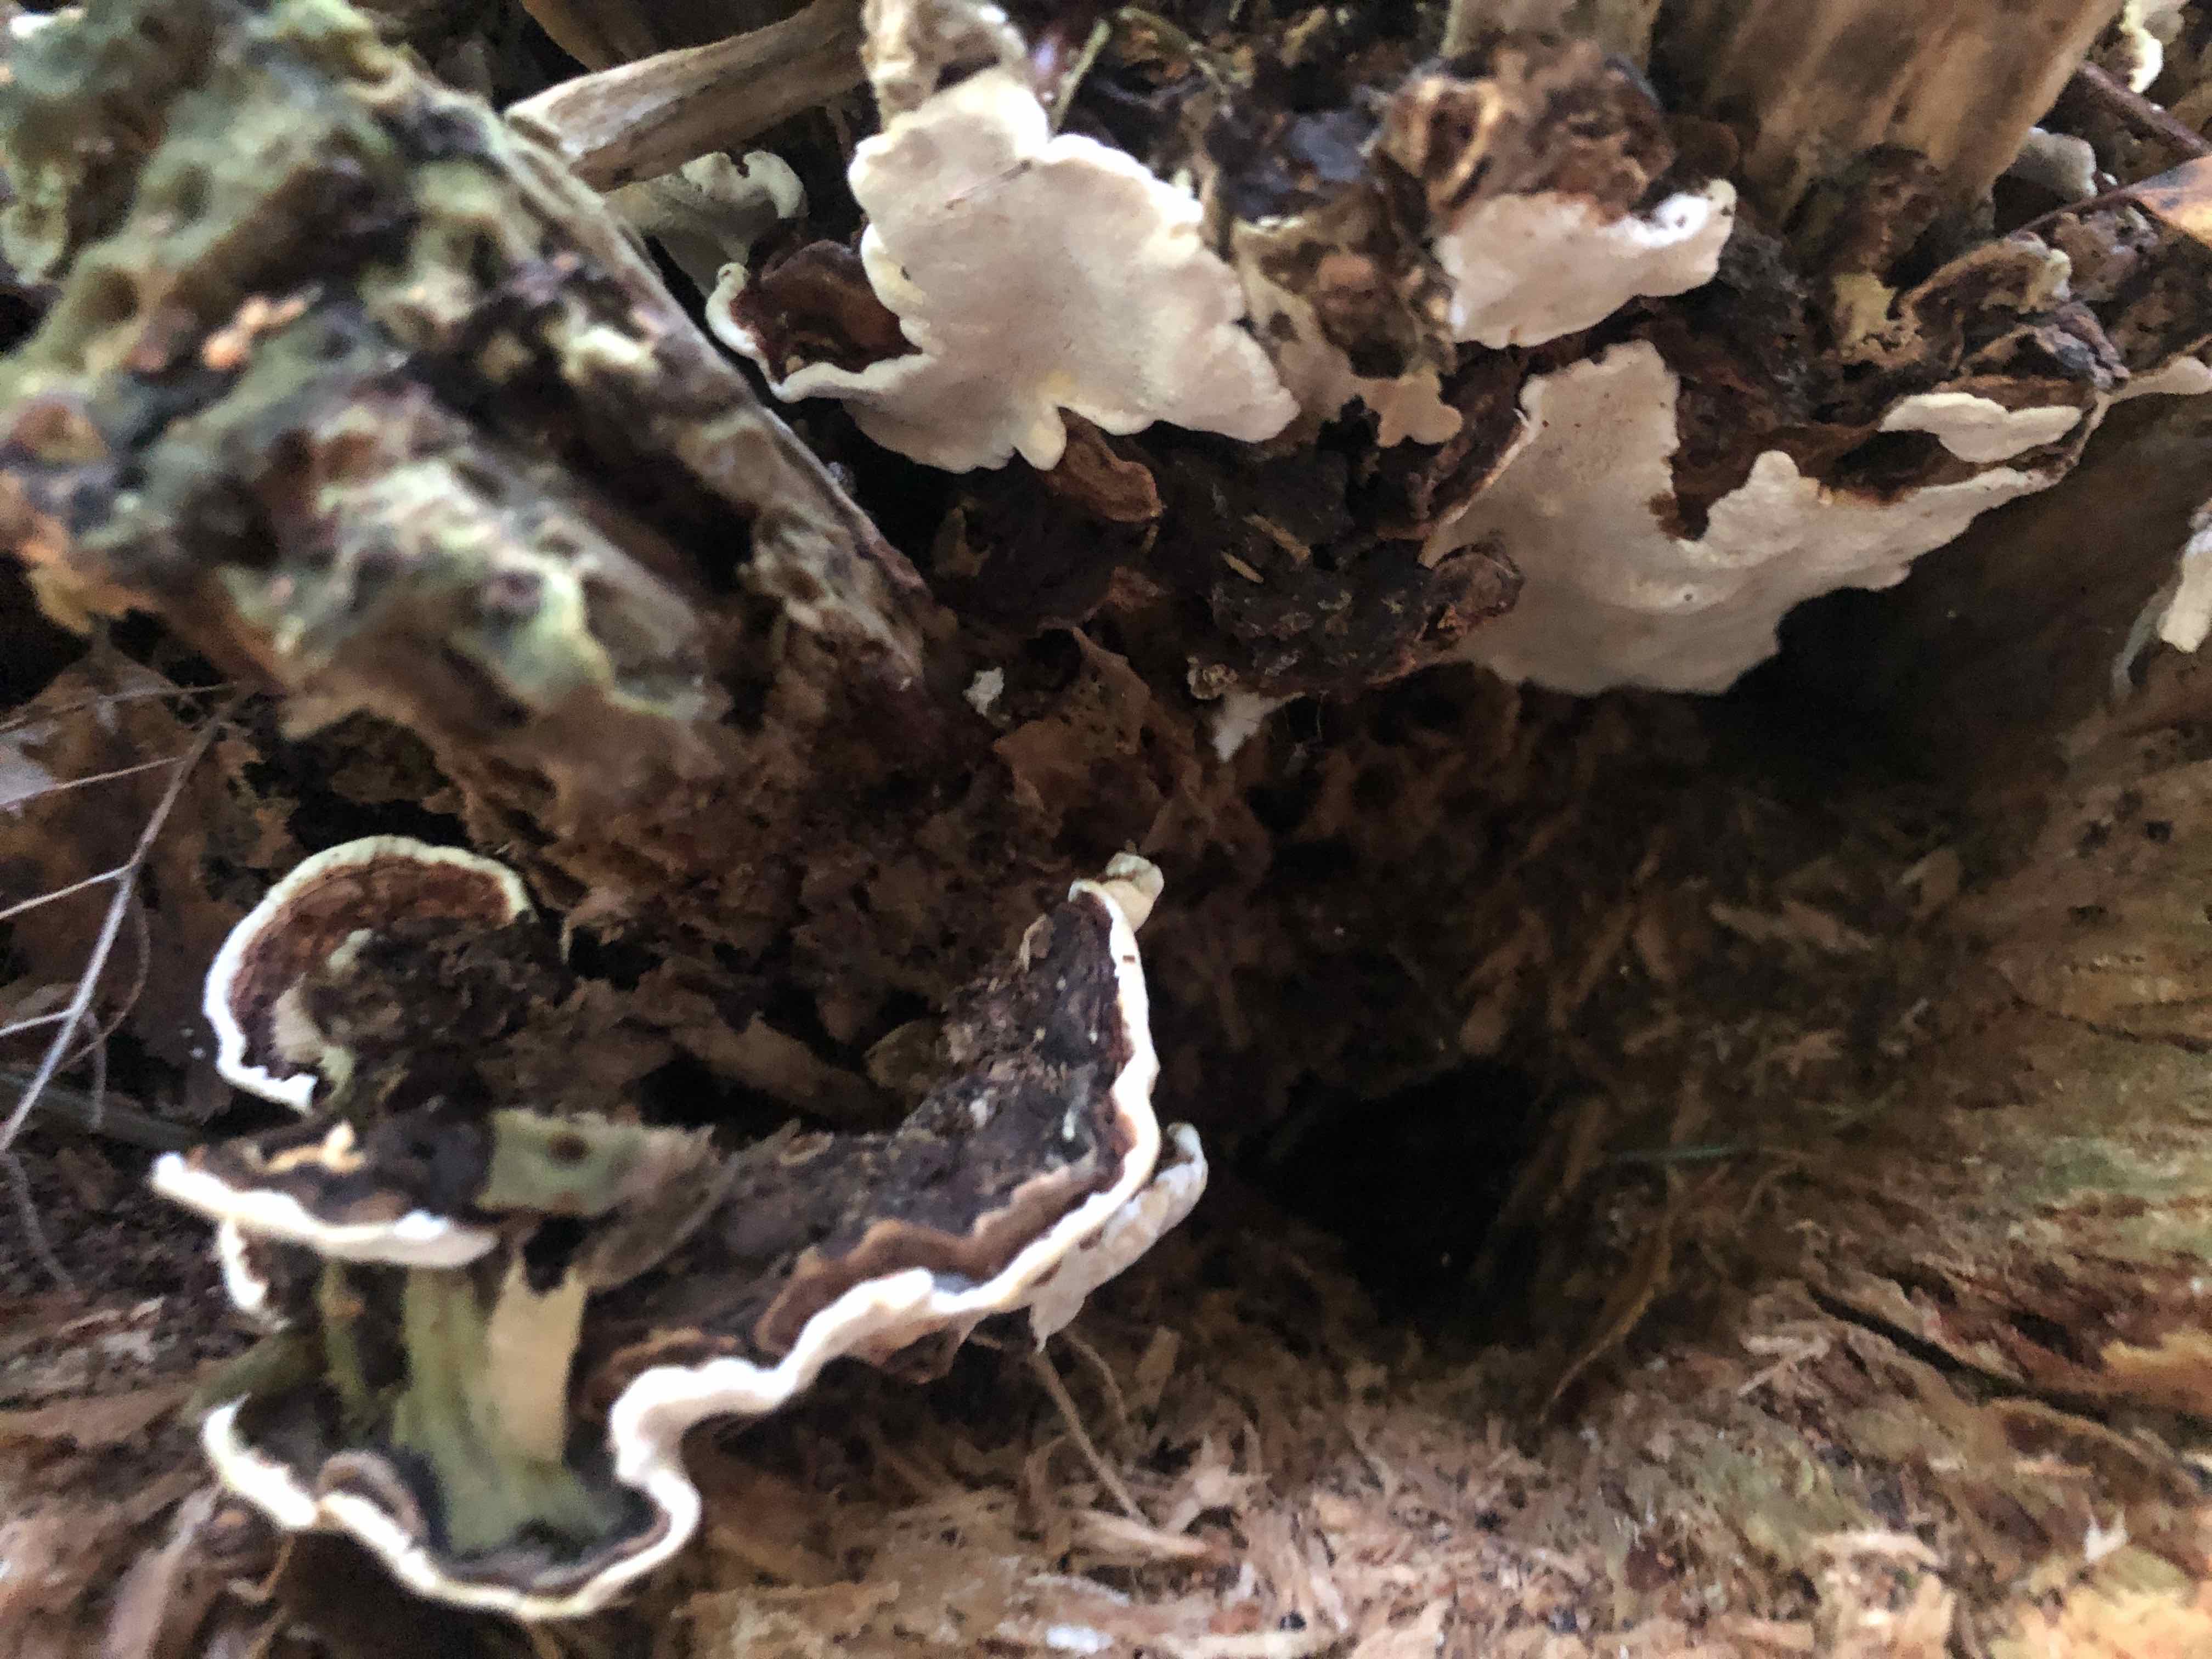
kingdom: Fungi
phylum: Basidiomycota
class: Agaricomycetes
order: Russulales
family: Bondarzewiaceae
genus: Heterobasidion
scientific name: Heterobasidion annosum
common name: almindelig rodfordærver
